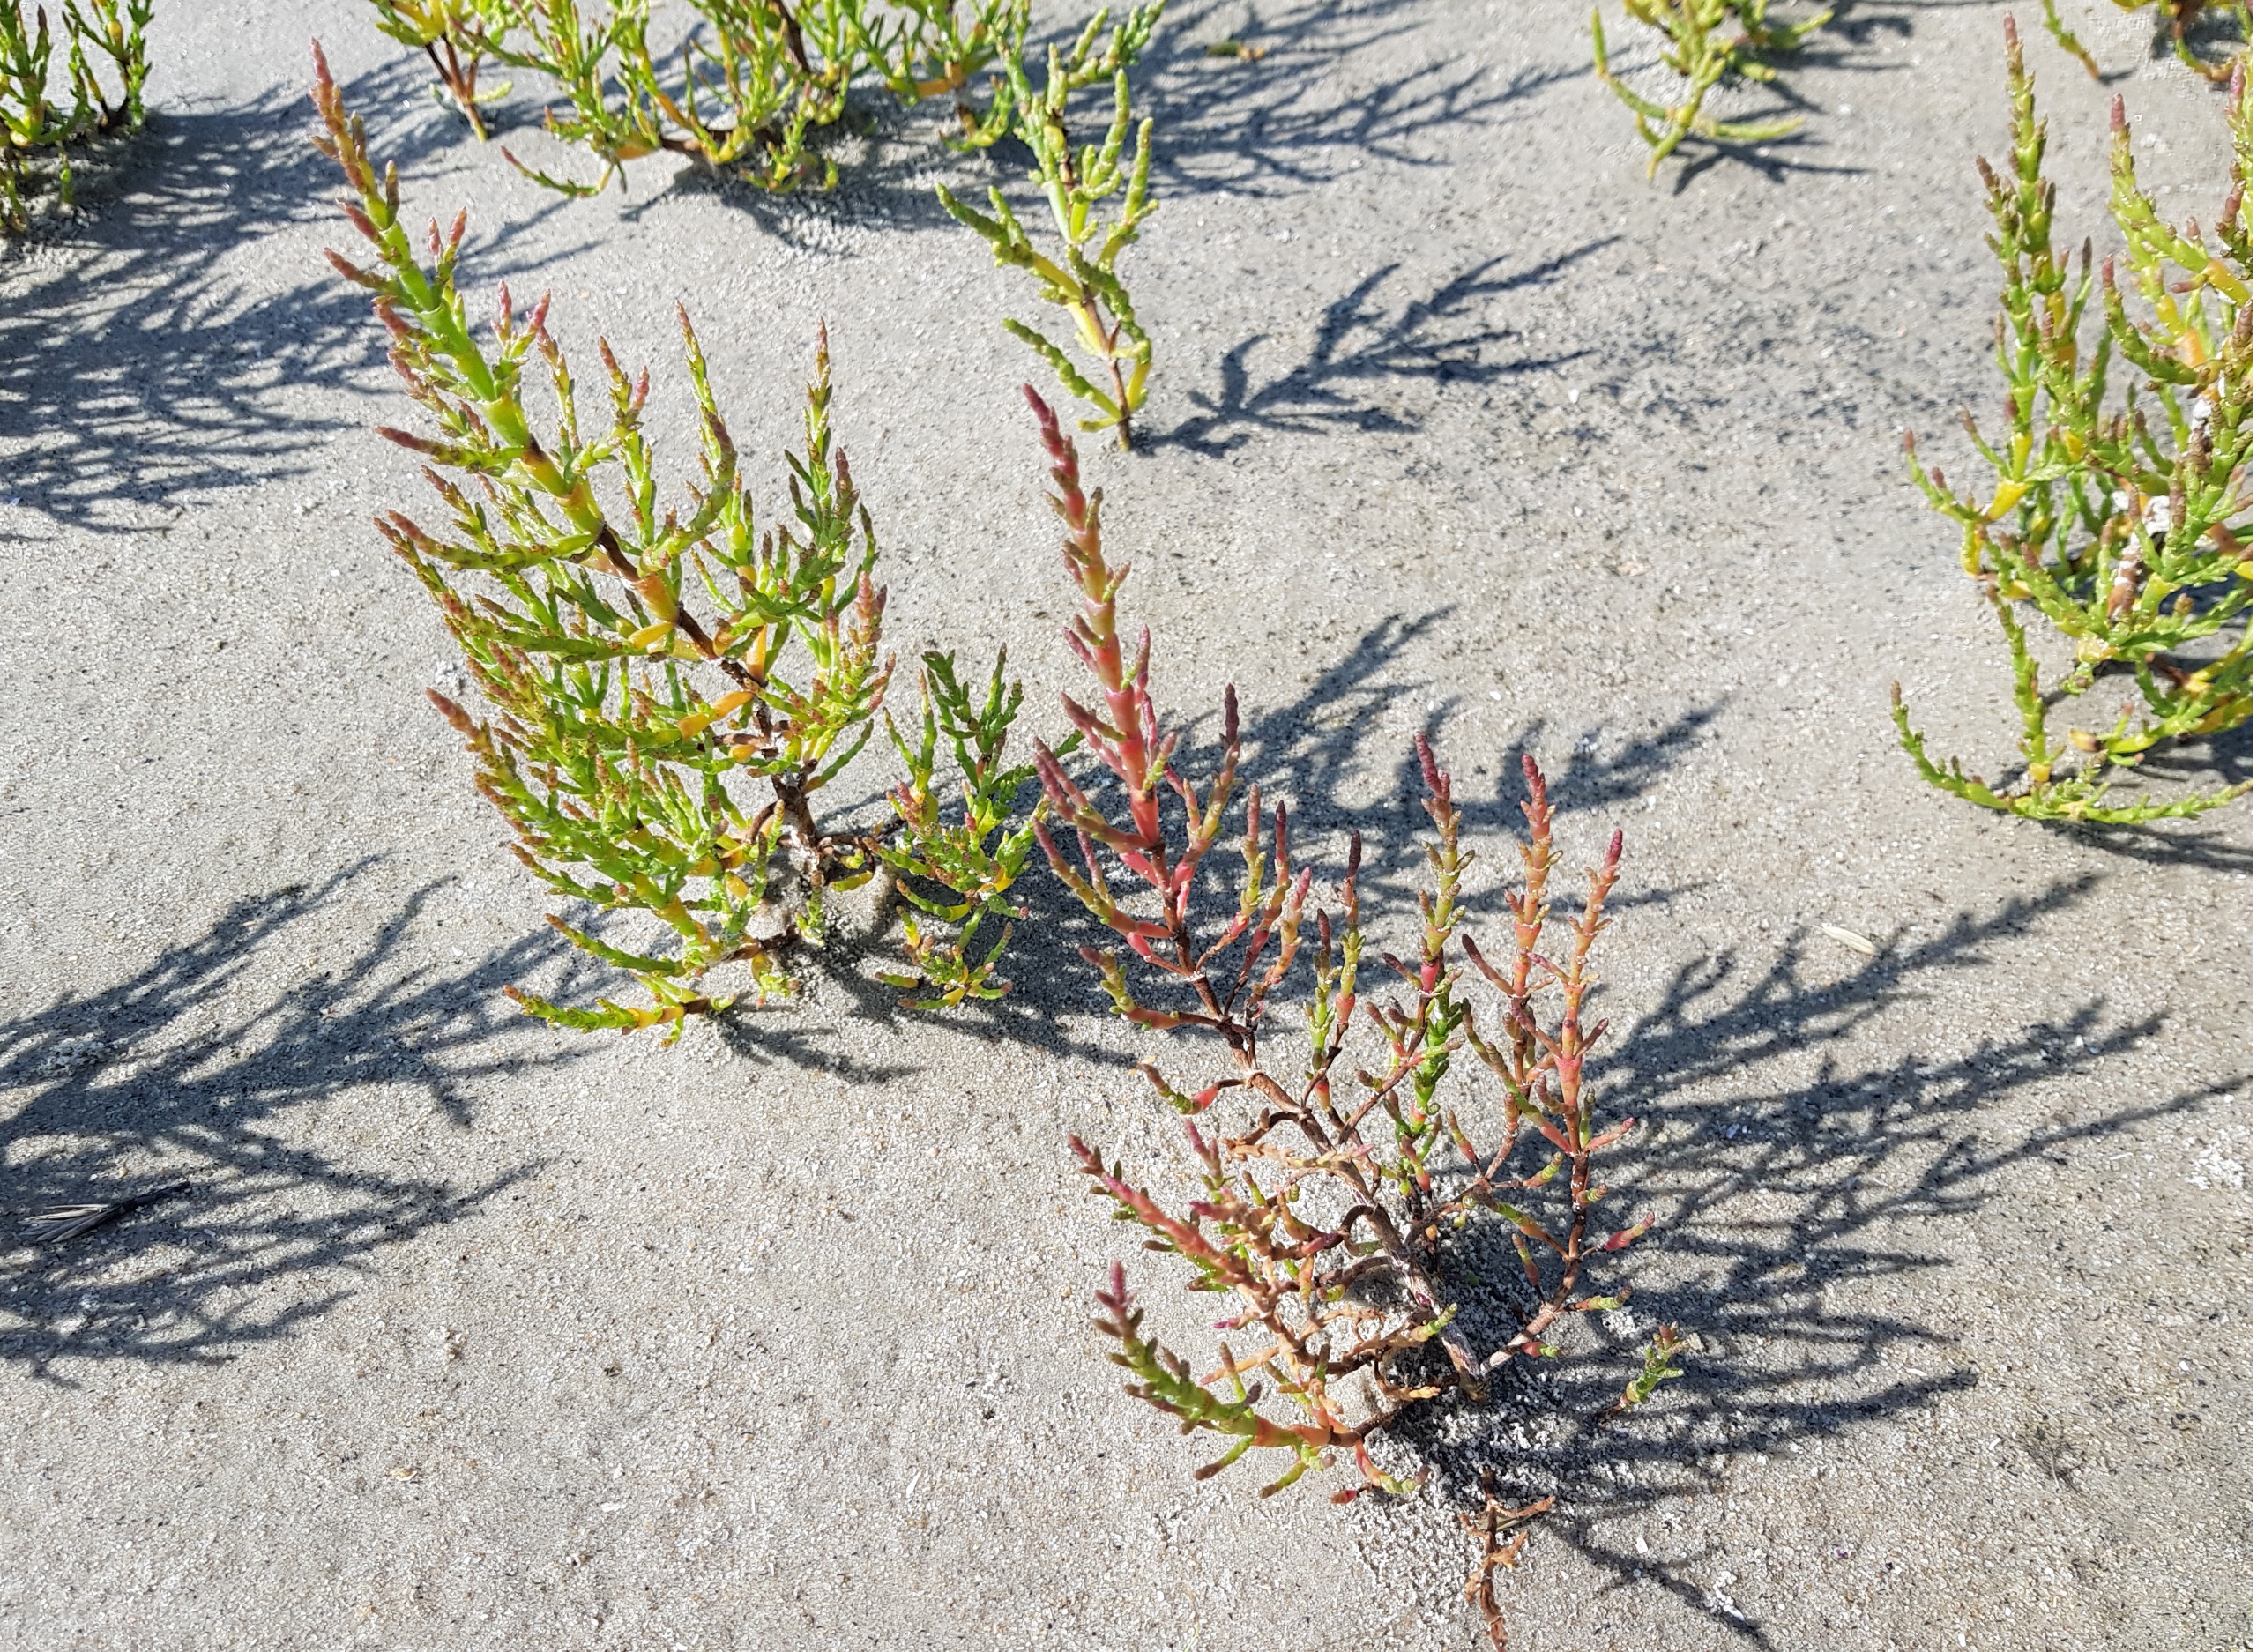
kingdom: Plantae
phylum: Tracheophyta
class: Magnoliopsida
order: Caryophyllales
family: Amaranthaceae
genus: Salicornia
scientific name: Salicornia europaea
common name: Almindelig salturt
